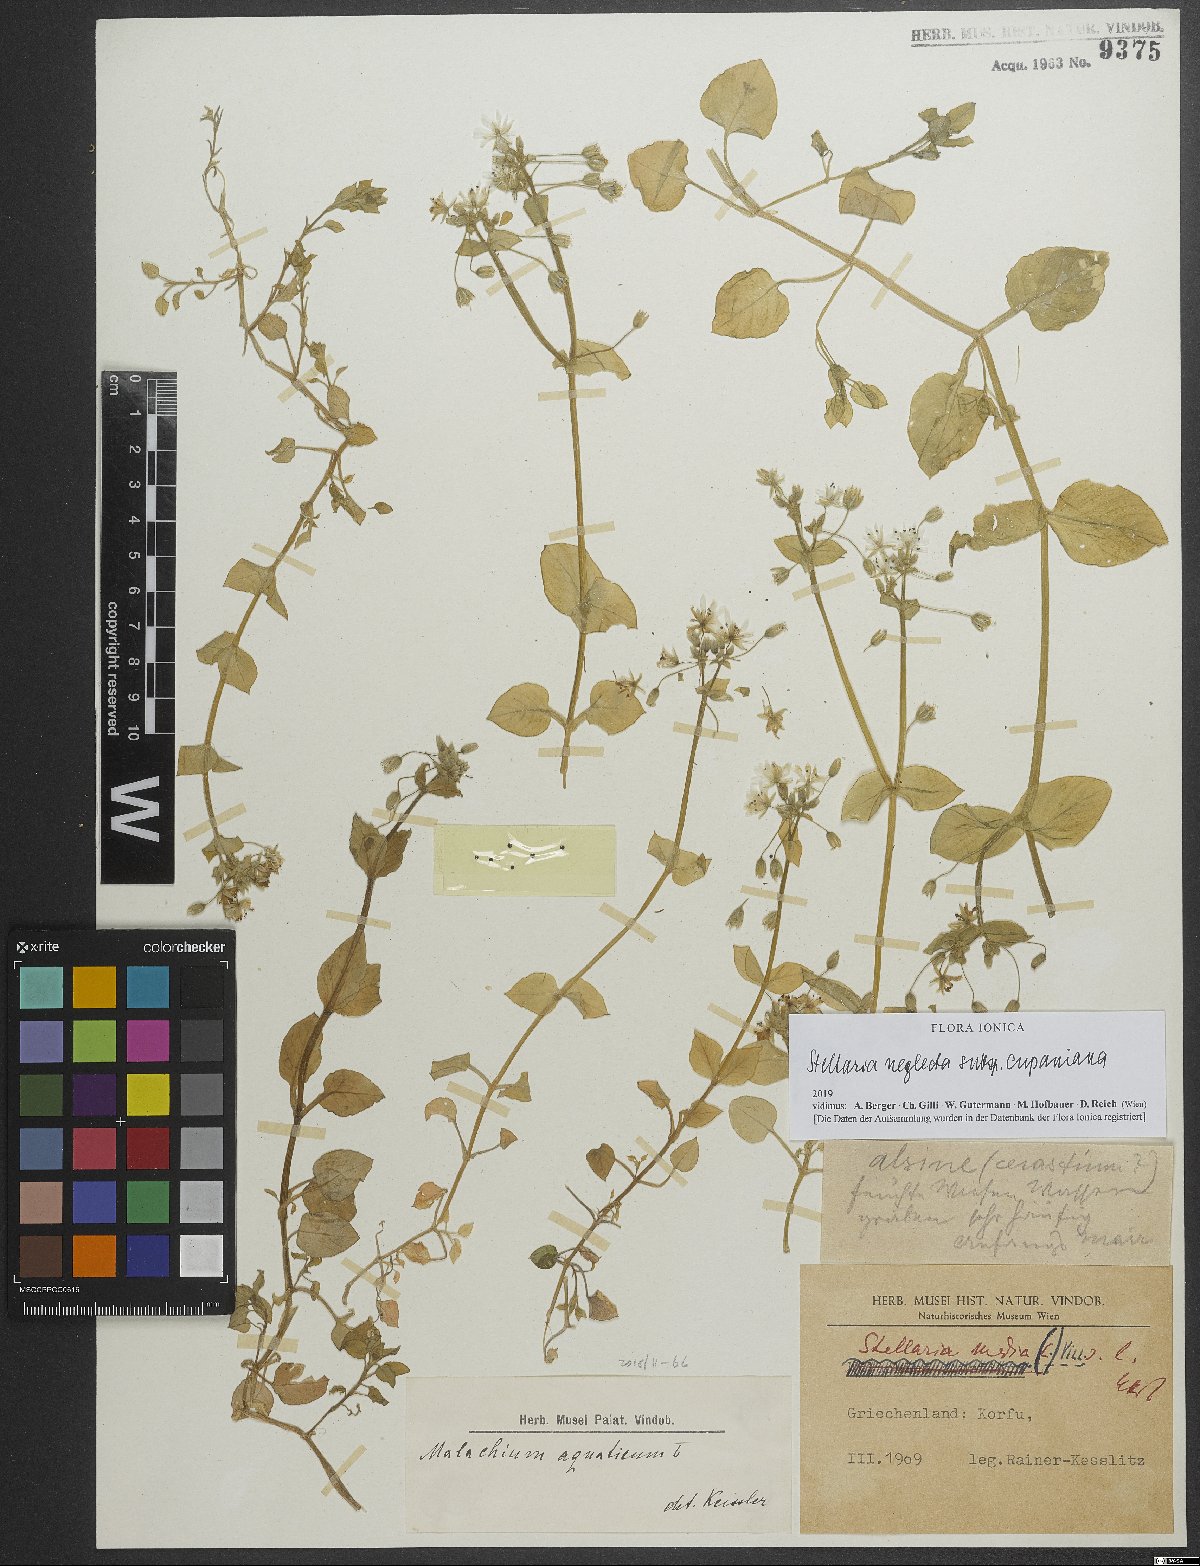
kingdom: Plantae
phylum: Tracheophyta
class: Magnoliopsida
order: Caryophyllales
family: Caryophyllaceae
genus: Stellaria
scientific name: Stellaria cupaniana
